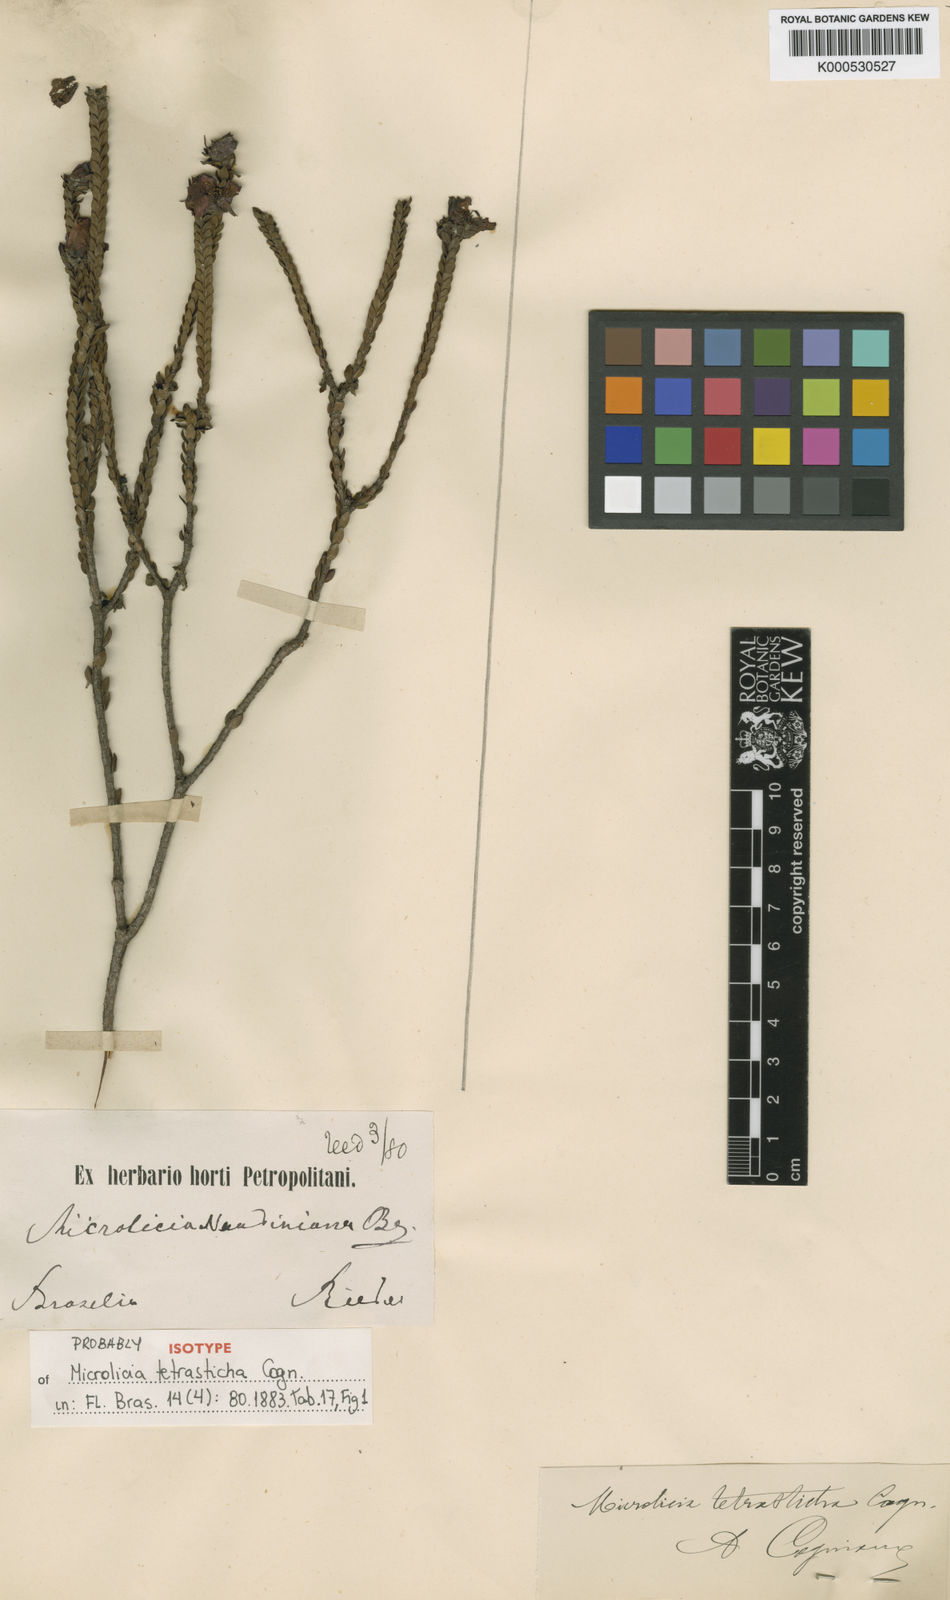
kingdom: Plantae
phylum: Tracheophyta
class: Magnoliopsida
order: Myrtales
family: Melastomataceae
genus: Microlicia
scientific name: Microlicia tetrasticha
